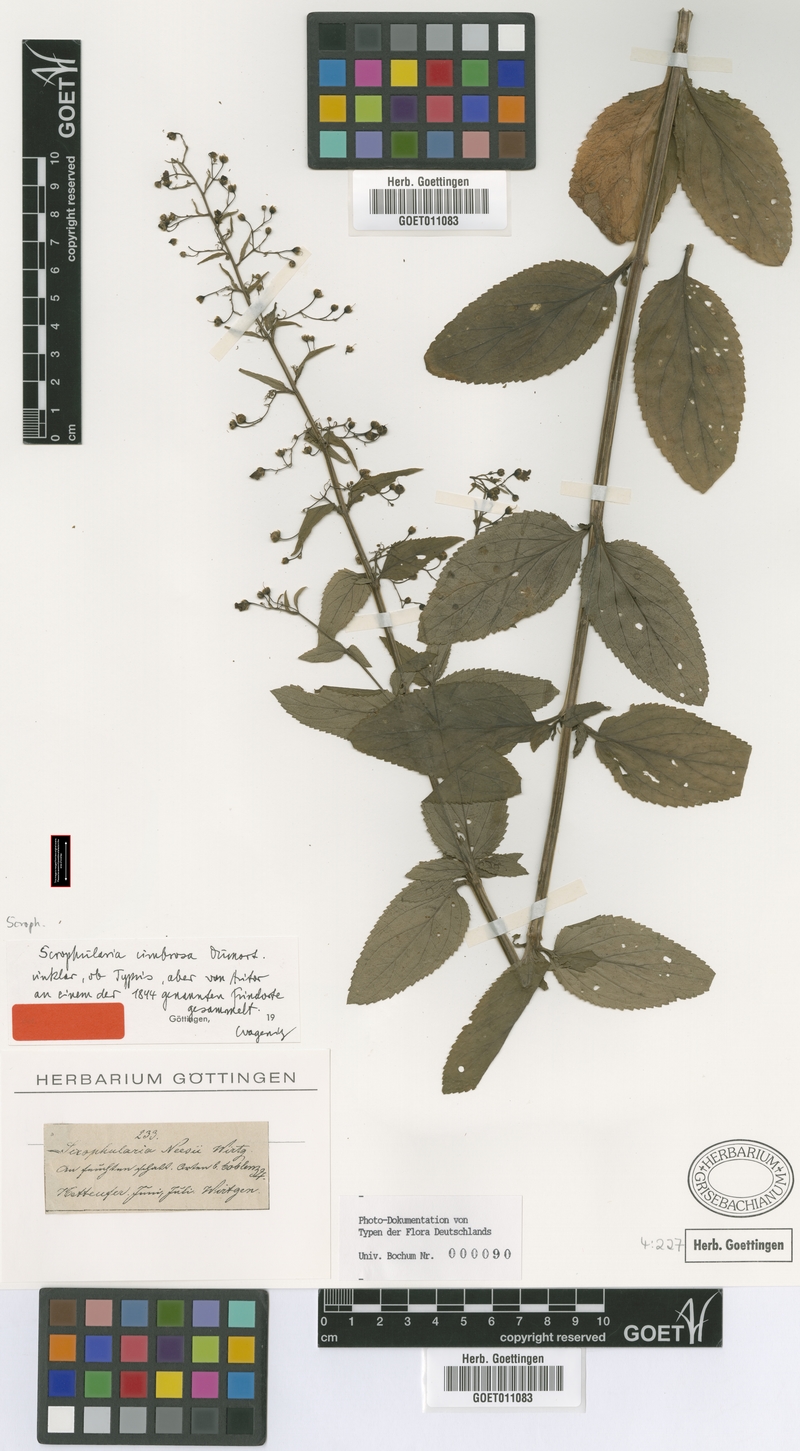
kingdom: Plantae
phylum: Tracheophyta
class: Magnoliopsida
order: Lamiales
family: Scrophulariaceae
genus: Scrophularia
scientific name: Scrophularia umbrosa
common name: Green figwort
